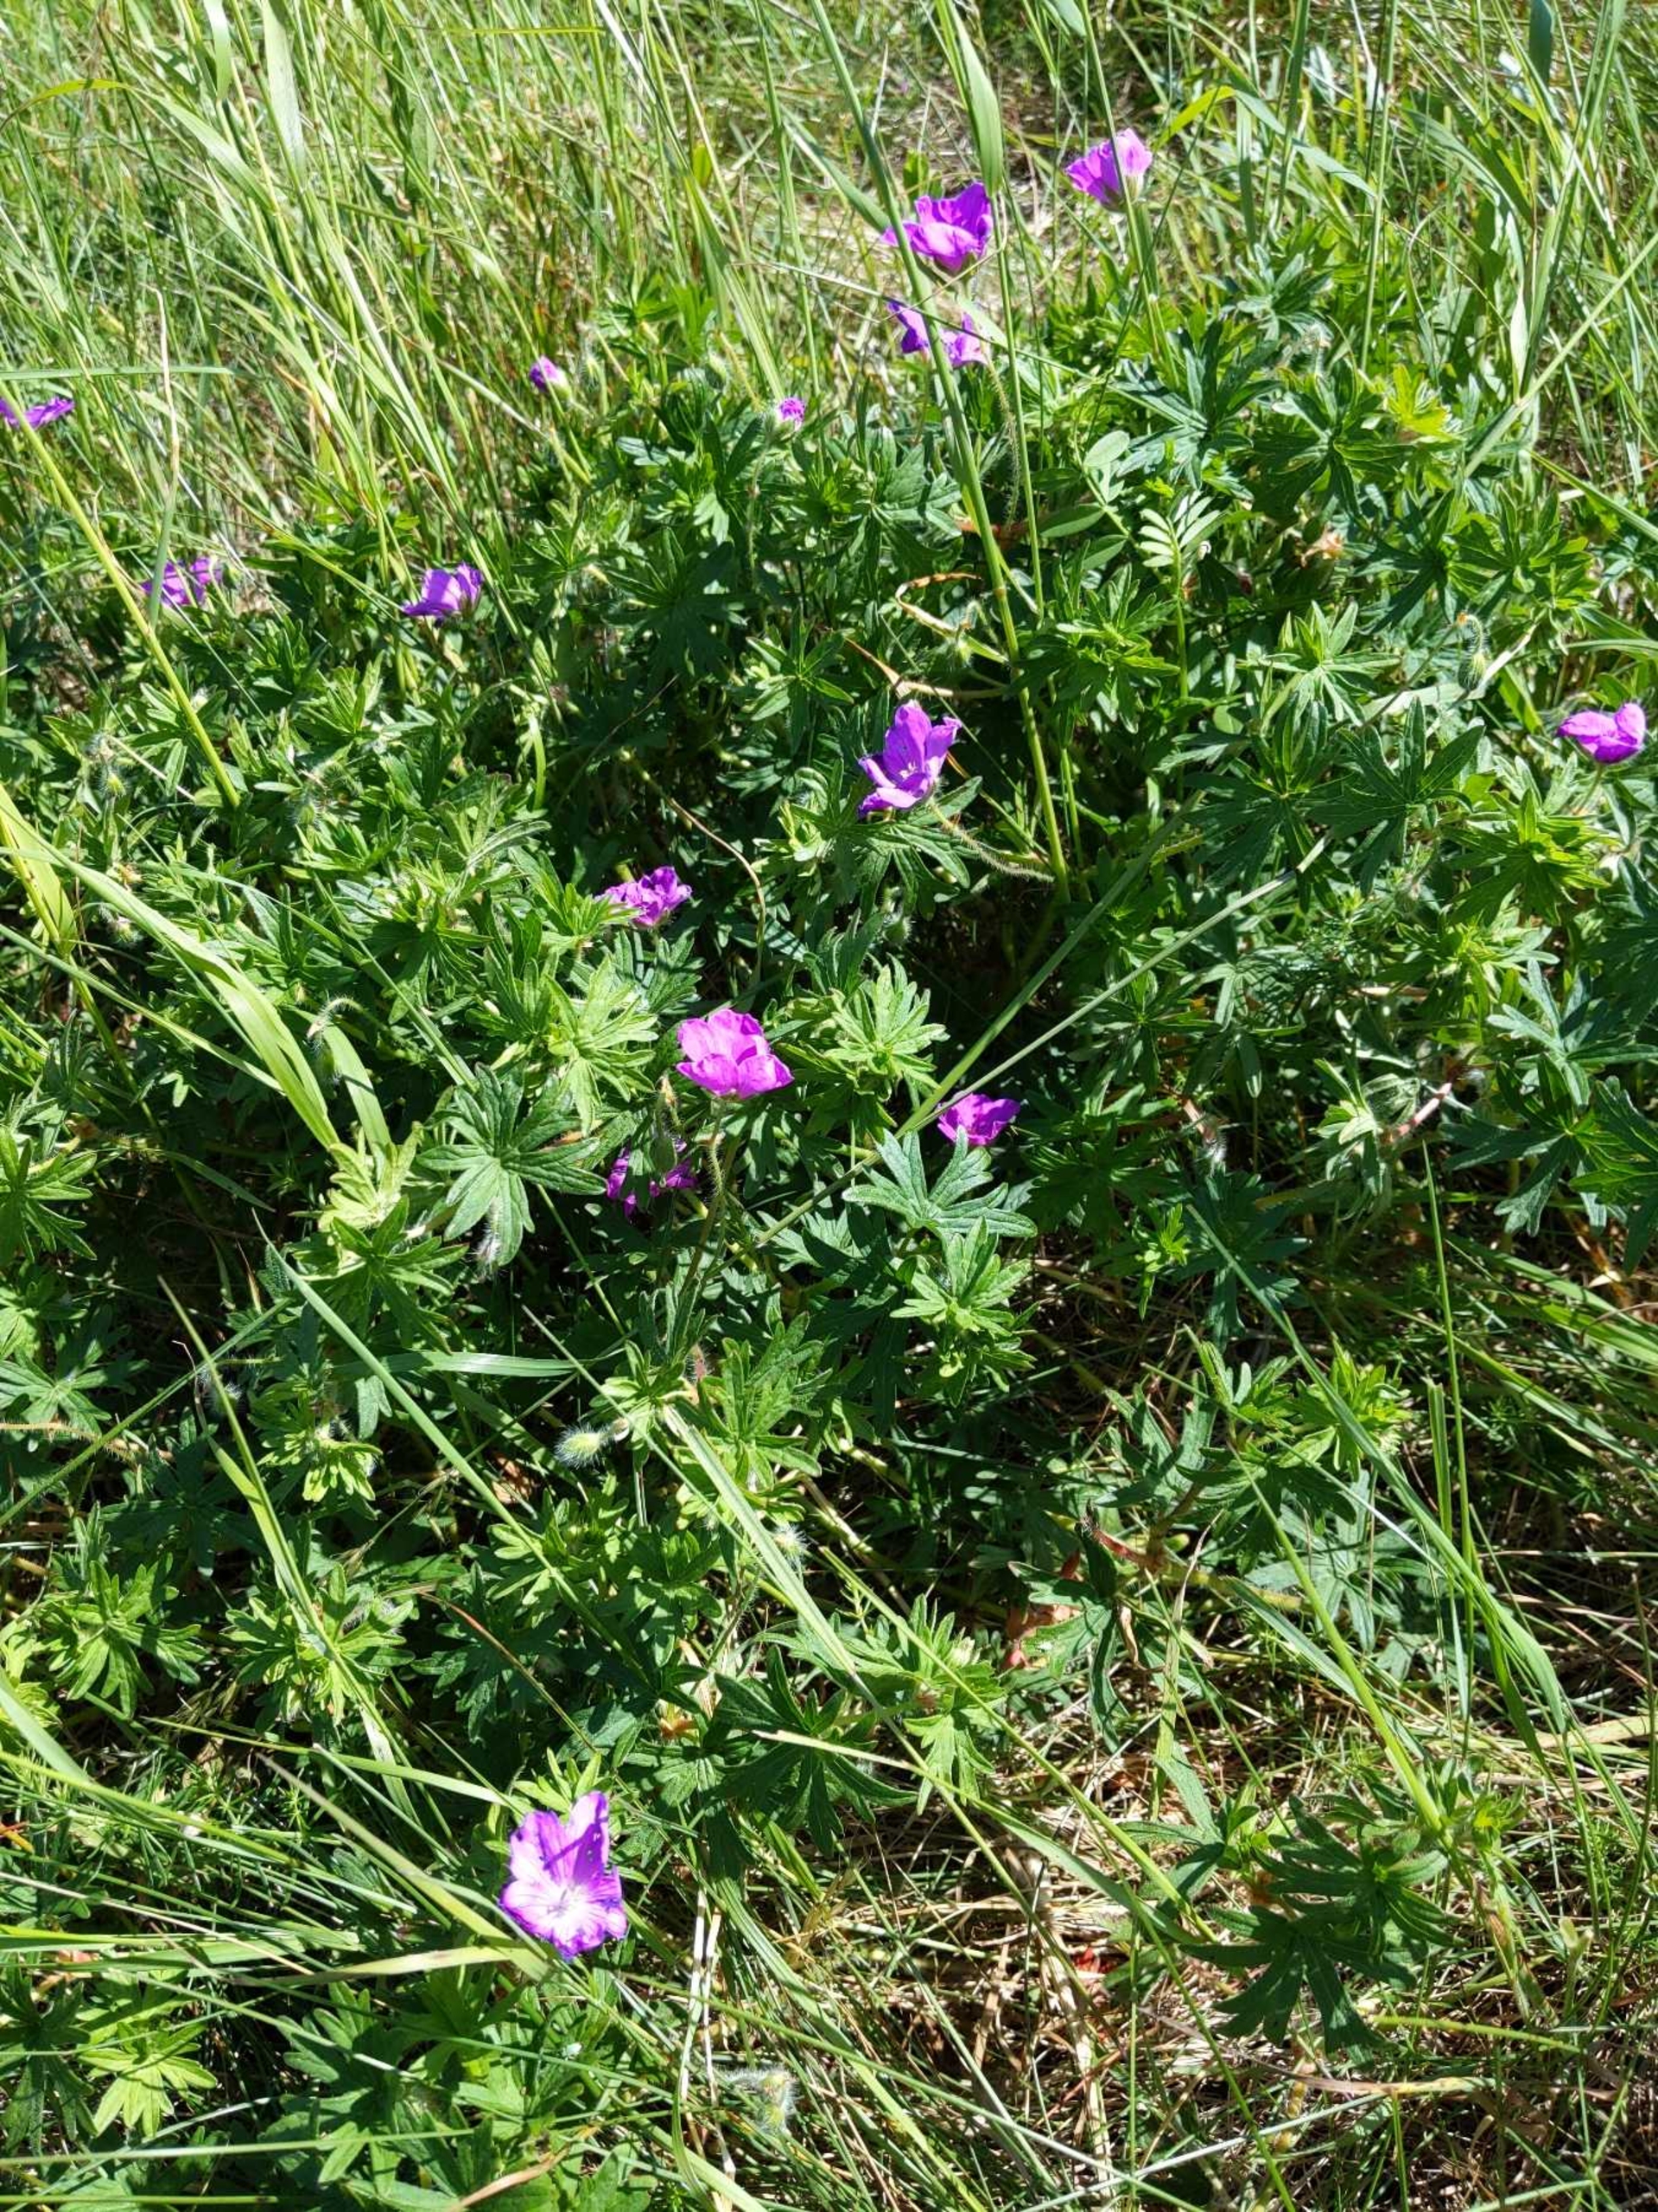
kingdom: Plantae
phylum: Tracheophyta
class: Magnoliopsida
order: Geraniales
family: Geraniaceae
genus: Geranium
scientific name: Geranium sanguineum
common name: Blodrød storkenæb
